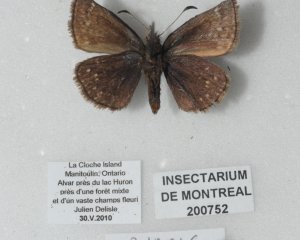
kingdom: Animalia
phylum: Arthropoda
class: Insecta
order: Lepidoptera
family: Hesperiidae
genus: Erynnis
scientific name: Erynnis icelus
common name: Dreamy Duskywing
